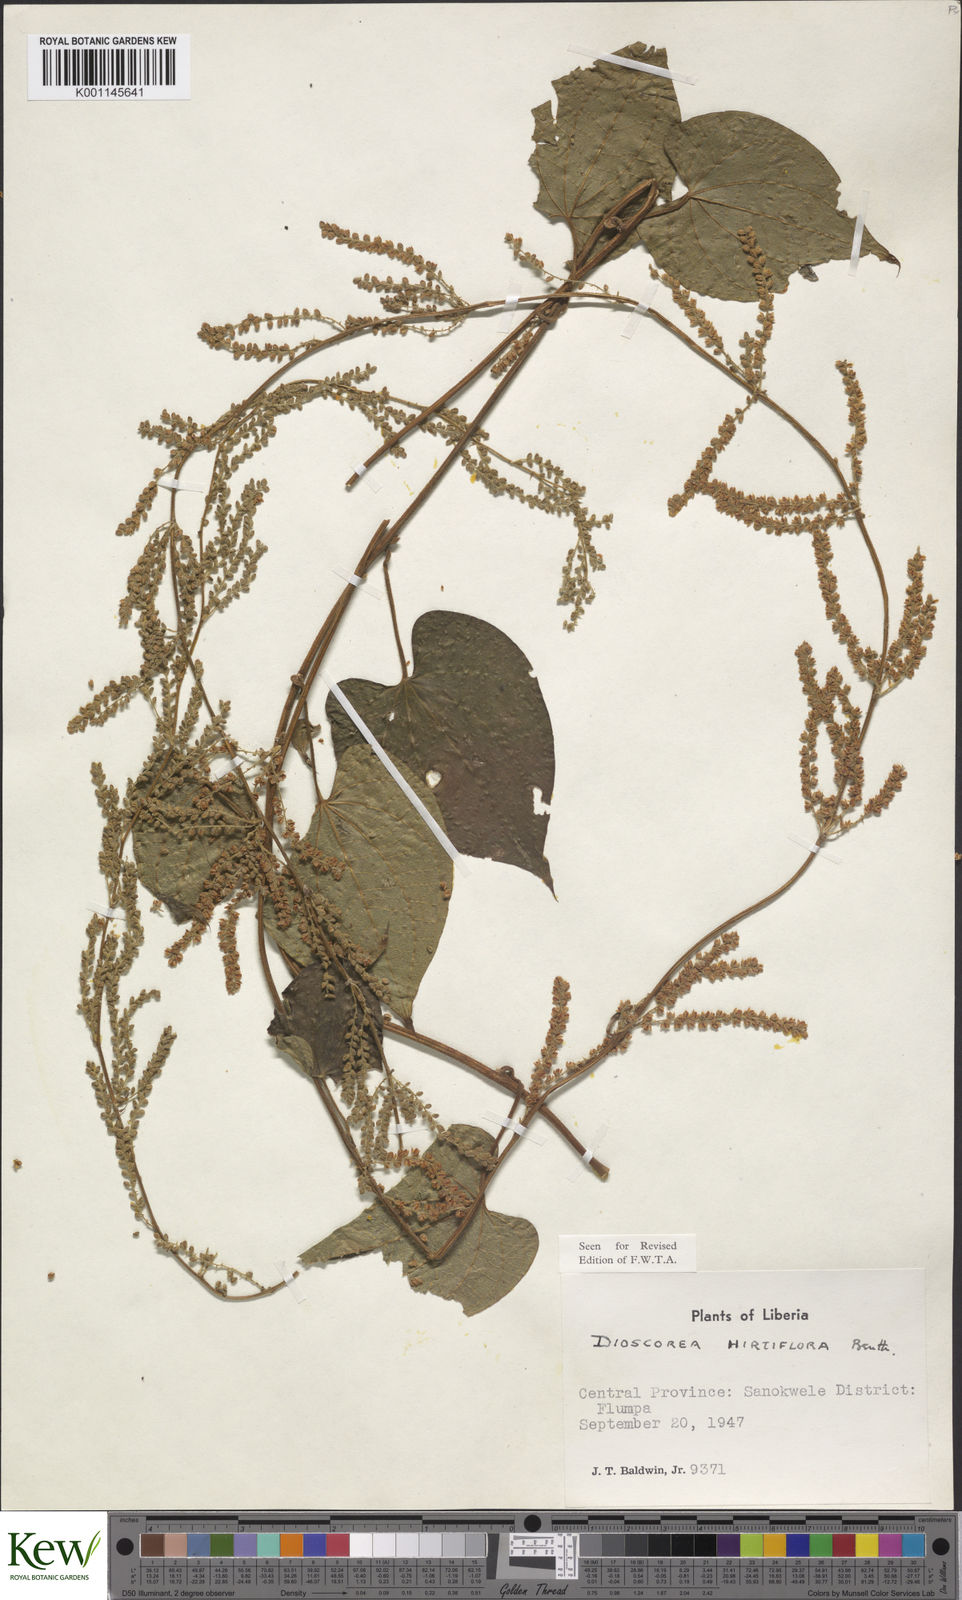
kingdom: Plantae
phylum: Tracheophyta
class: Liliopsida
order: Dioscoreales
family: Dioscoreaceae
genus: Dioscorea
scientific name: Dioscorea hirtiflora
